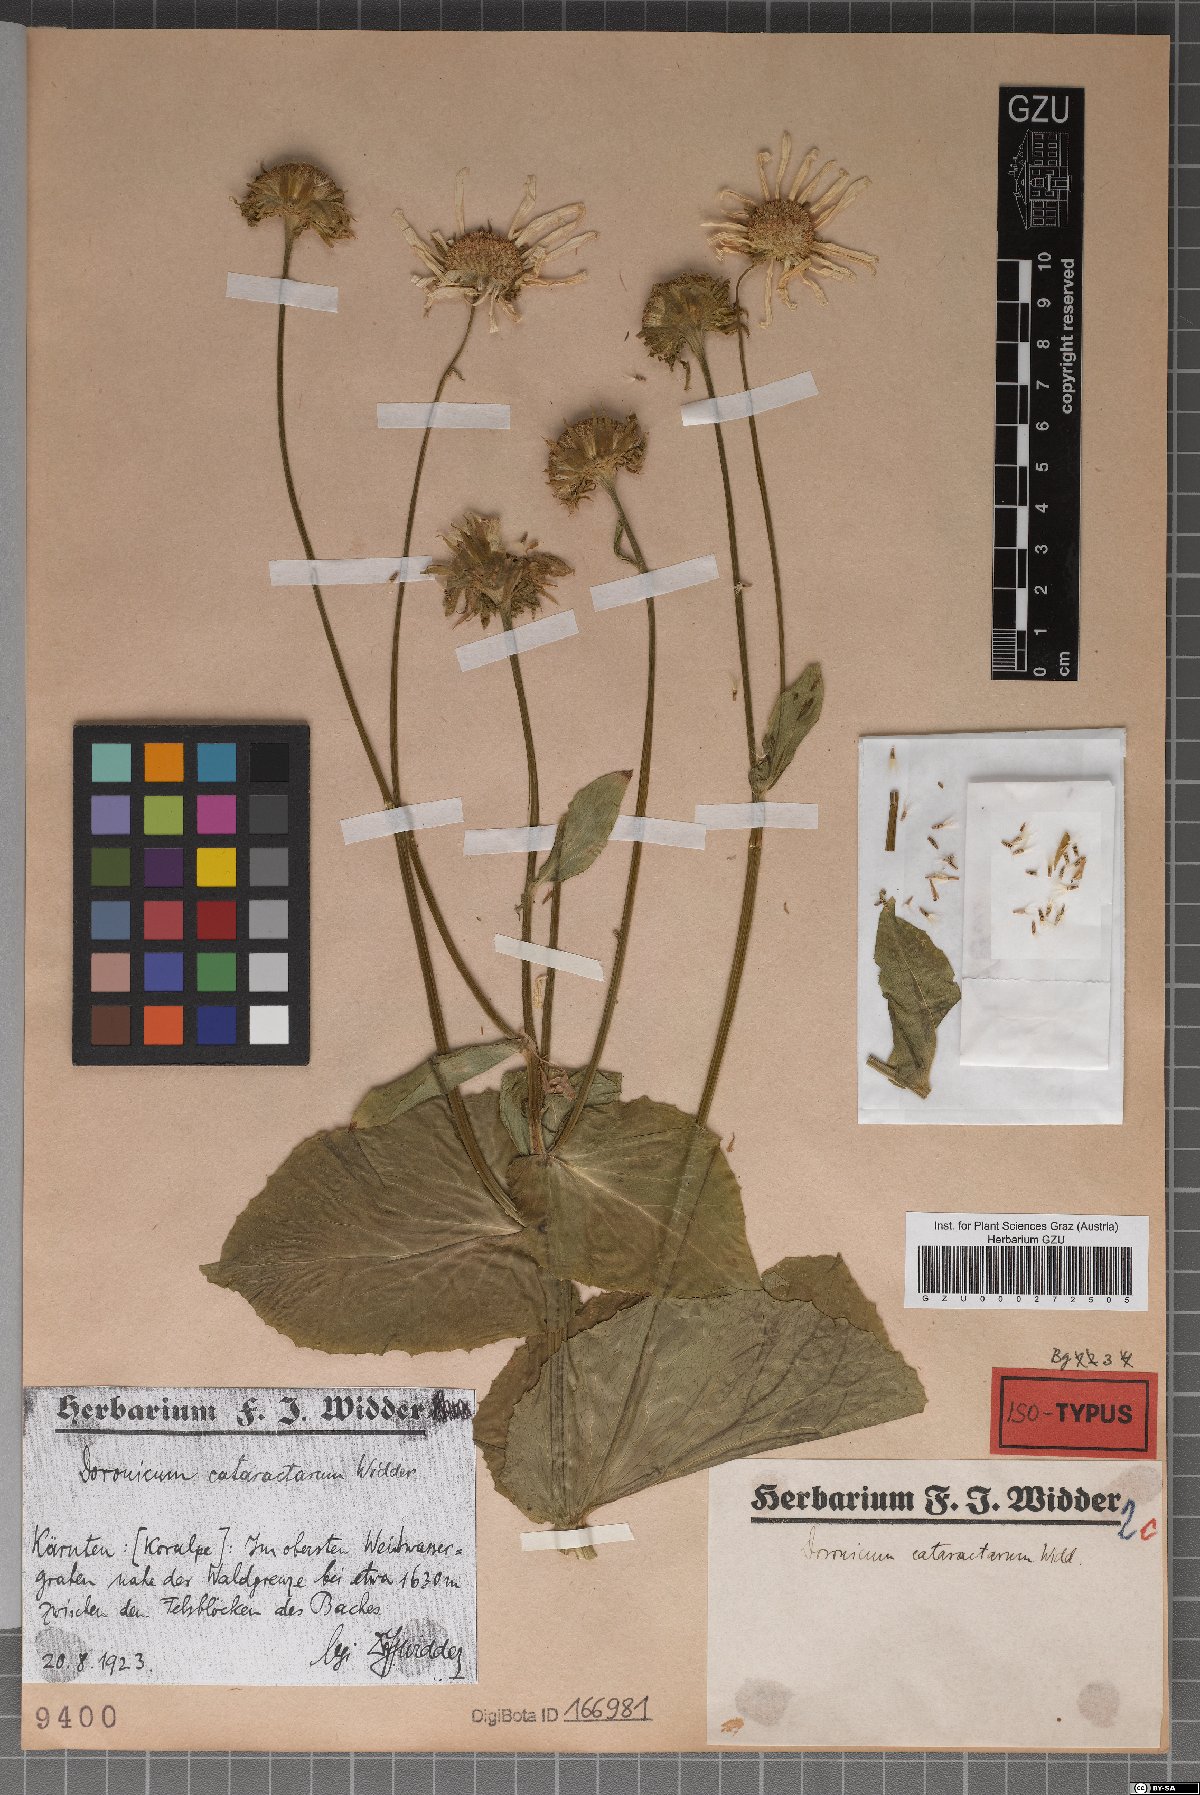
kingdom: Plantae
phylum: Tracheophyta
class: Magnoliopsida
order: Asterales
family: Asteraceae
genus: Doronicum
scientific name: Doronicum cataractarum
